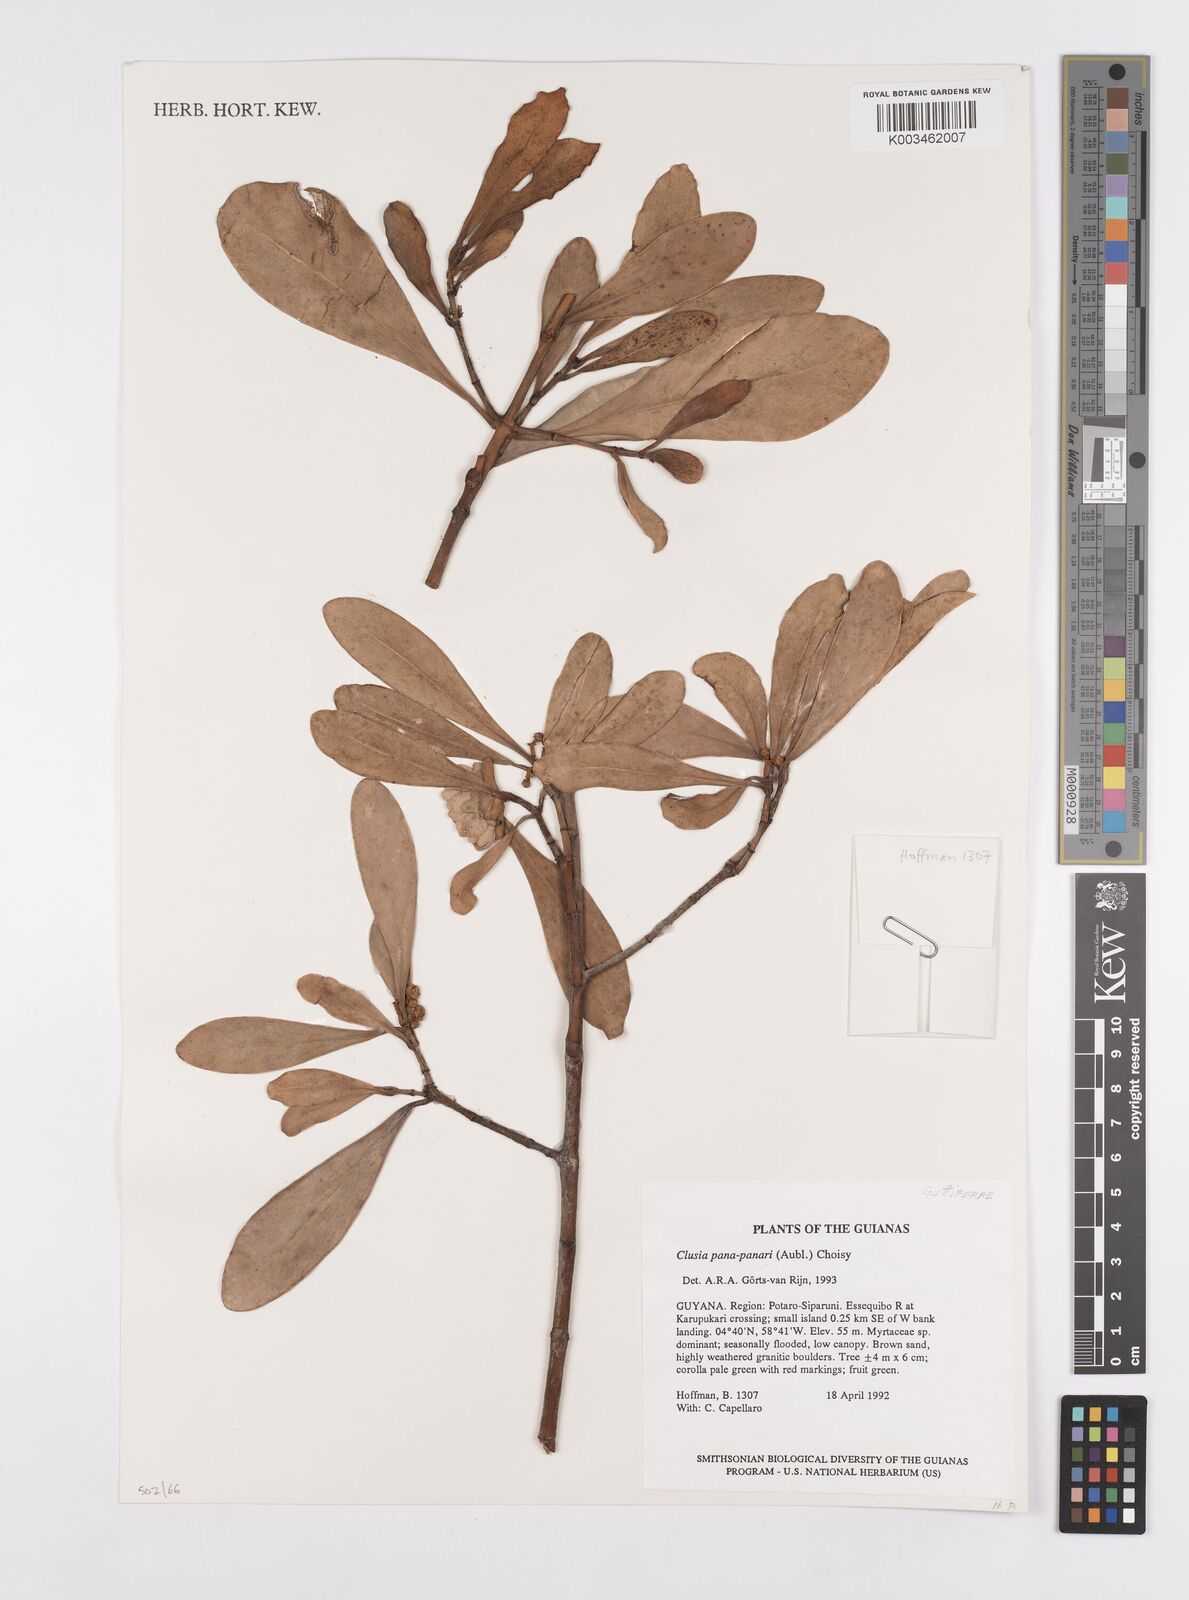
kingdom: Plantae
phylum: Tracheophyta
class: Magnoliopsida
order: Malpighiales
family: Clusiaceae
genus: Clusia
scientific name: Clusia panapanari
